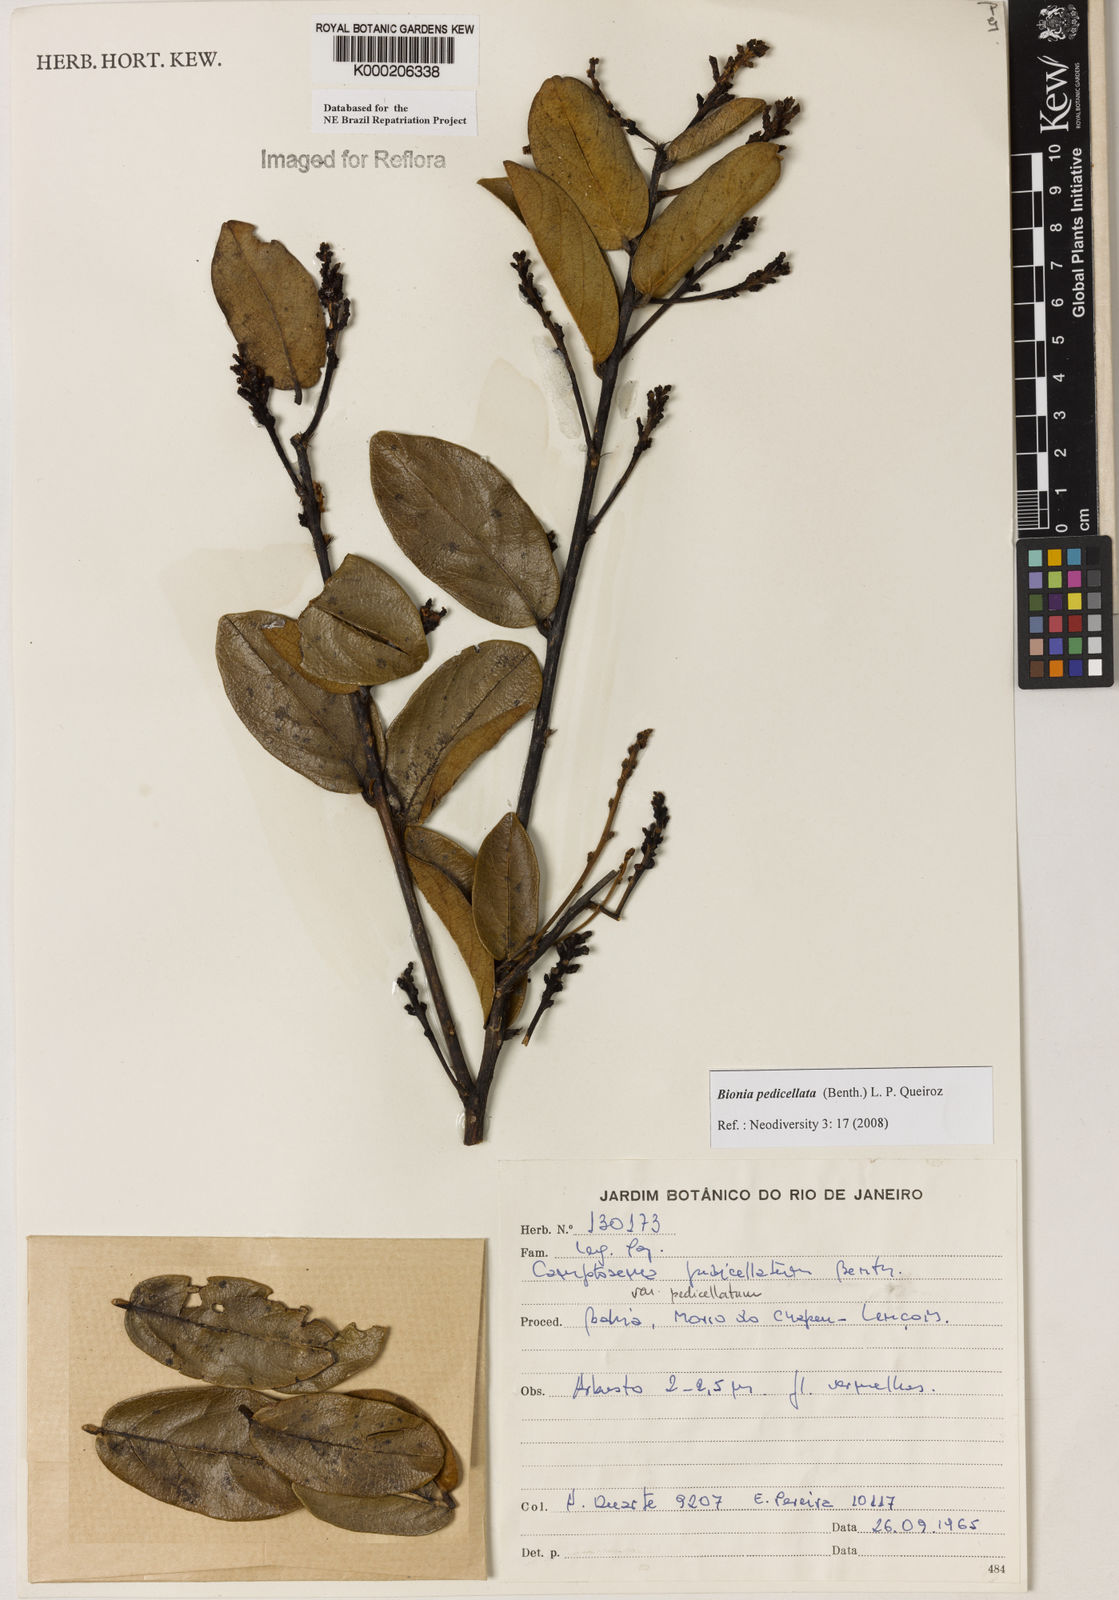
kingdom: Plantae
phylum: Tracheophyta
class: Magnoliopsida
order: Fabales
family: Fabaceae
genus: Camptosema
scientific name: Camptosema pedicellatum
